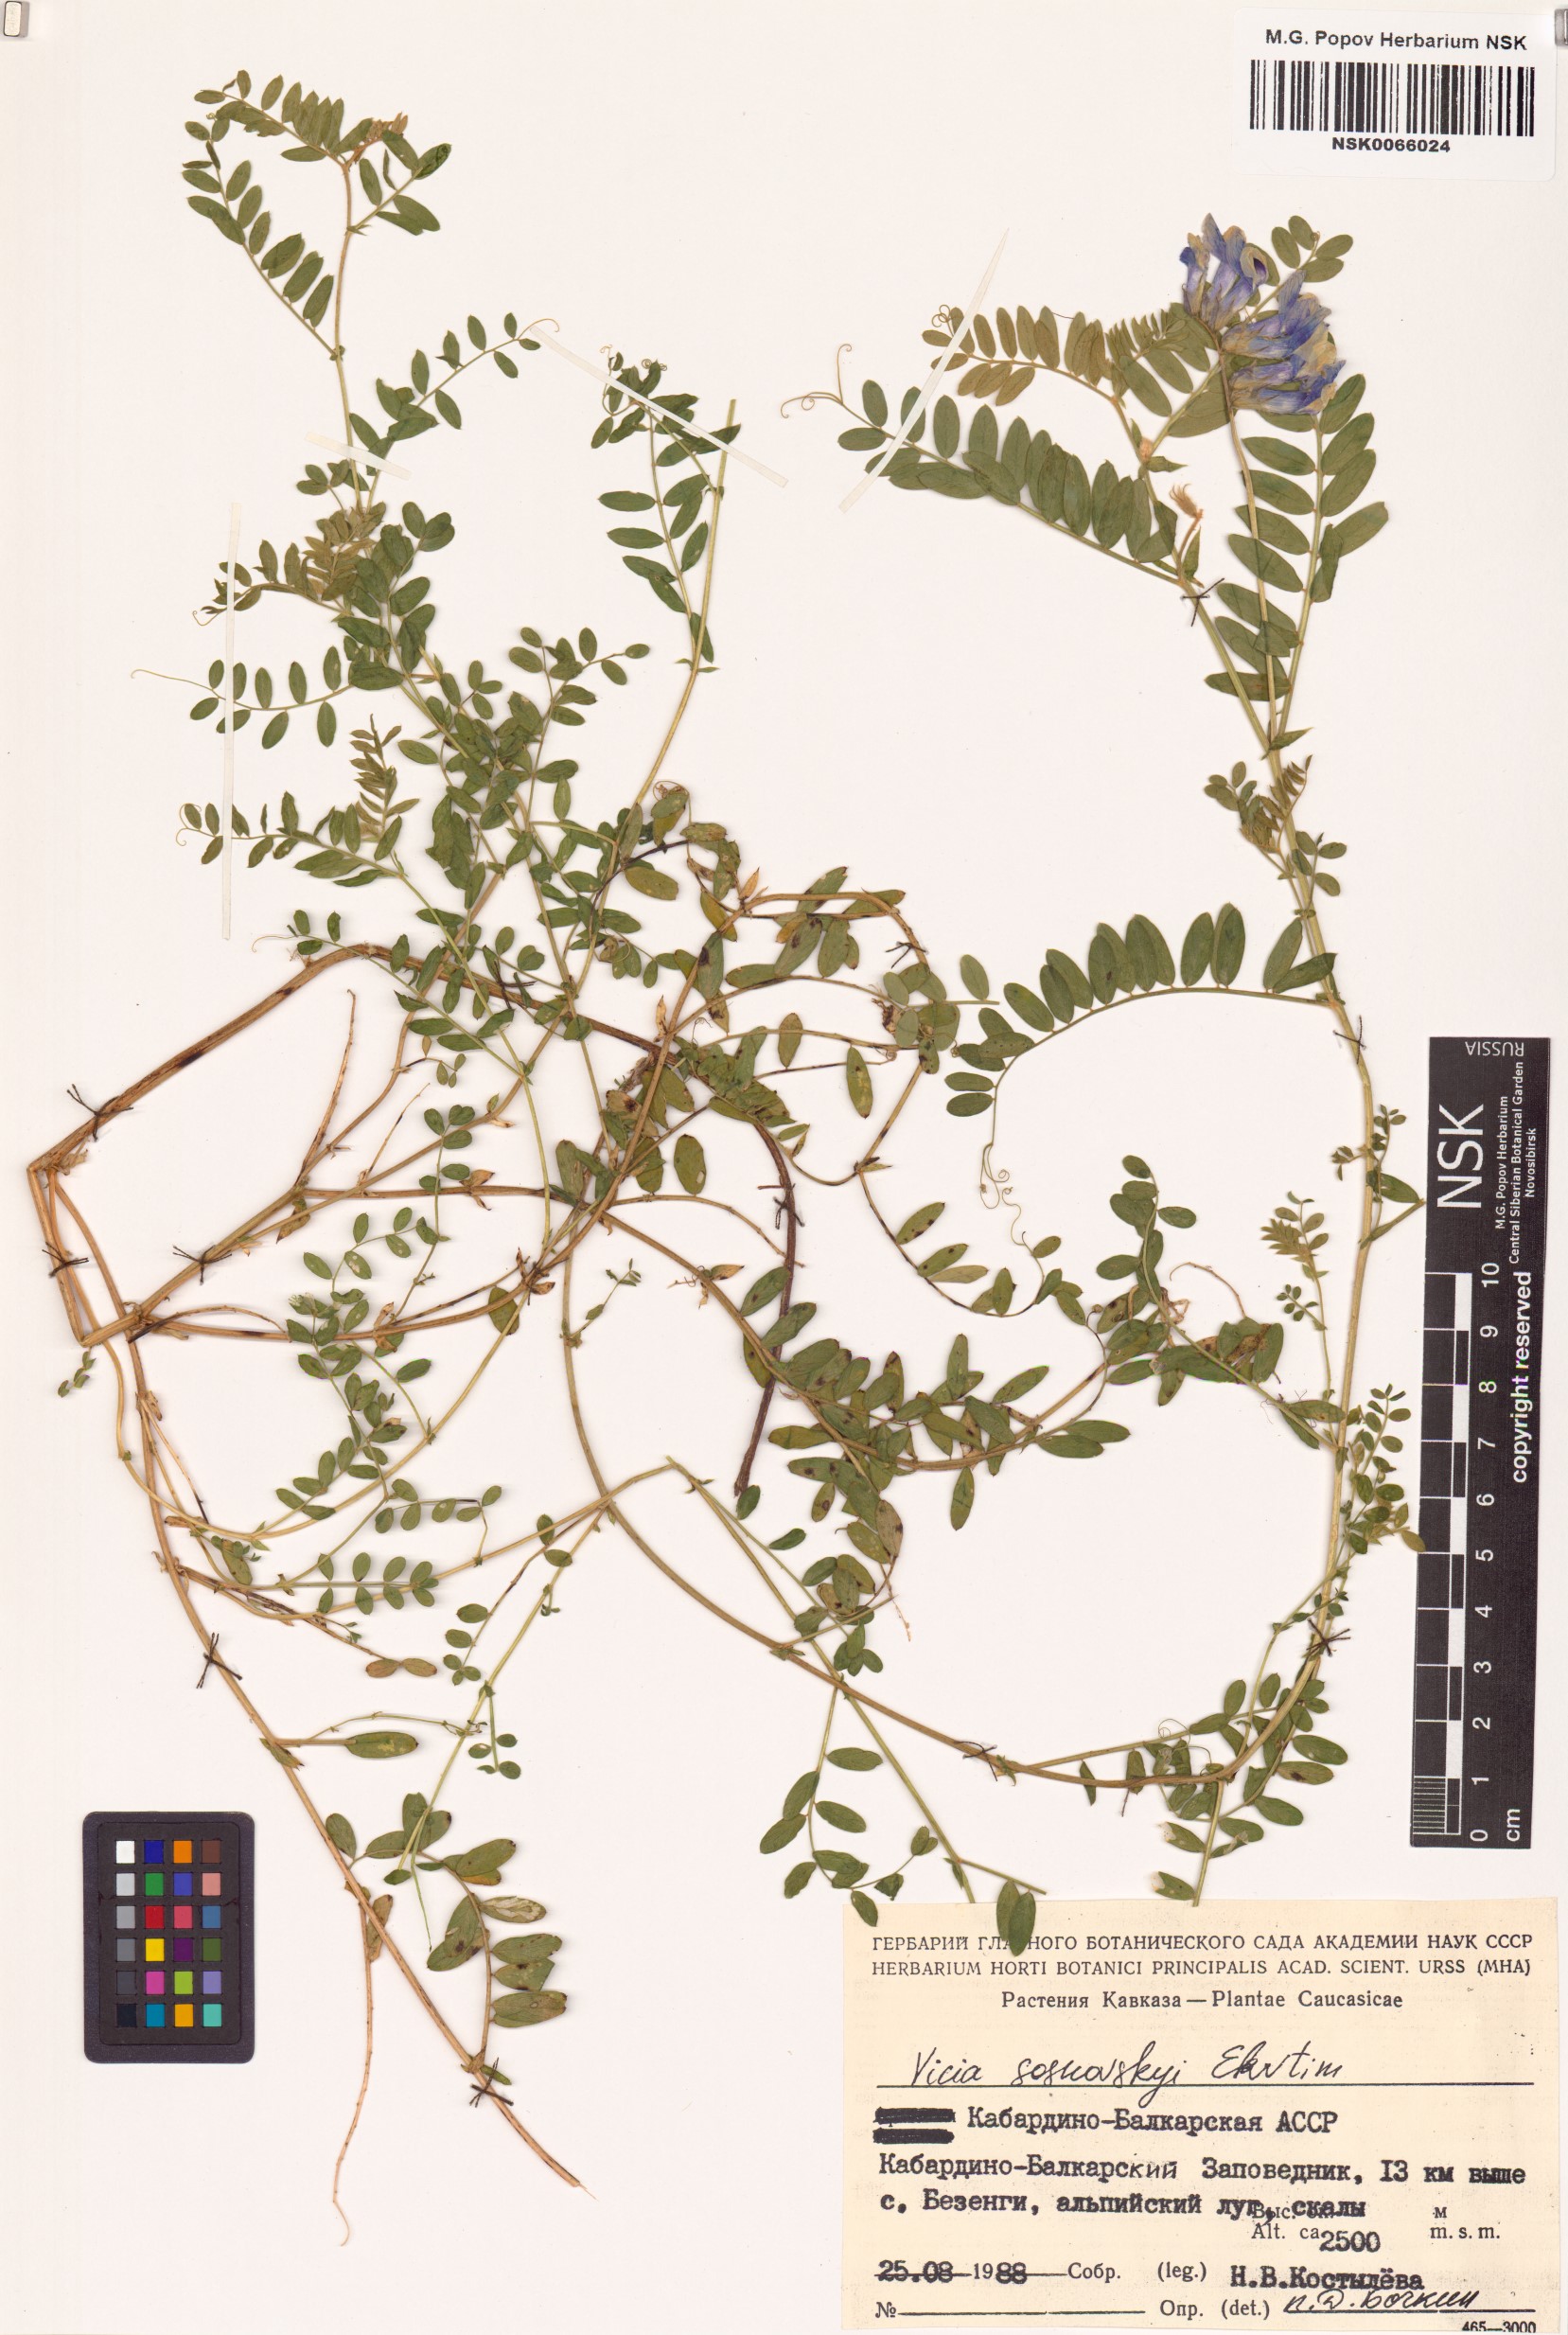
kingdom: Plantae
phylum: Tracheophyta
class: Magnoliopsida
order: Fabales
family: Fabaceae
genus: Vicia
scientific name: Vicia sosnowskyi
